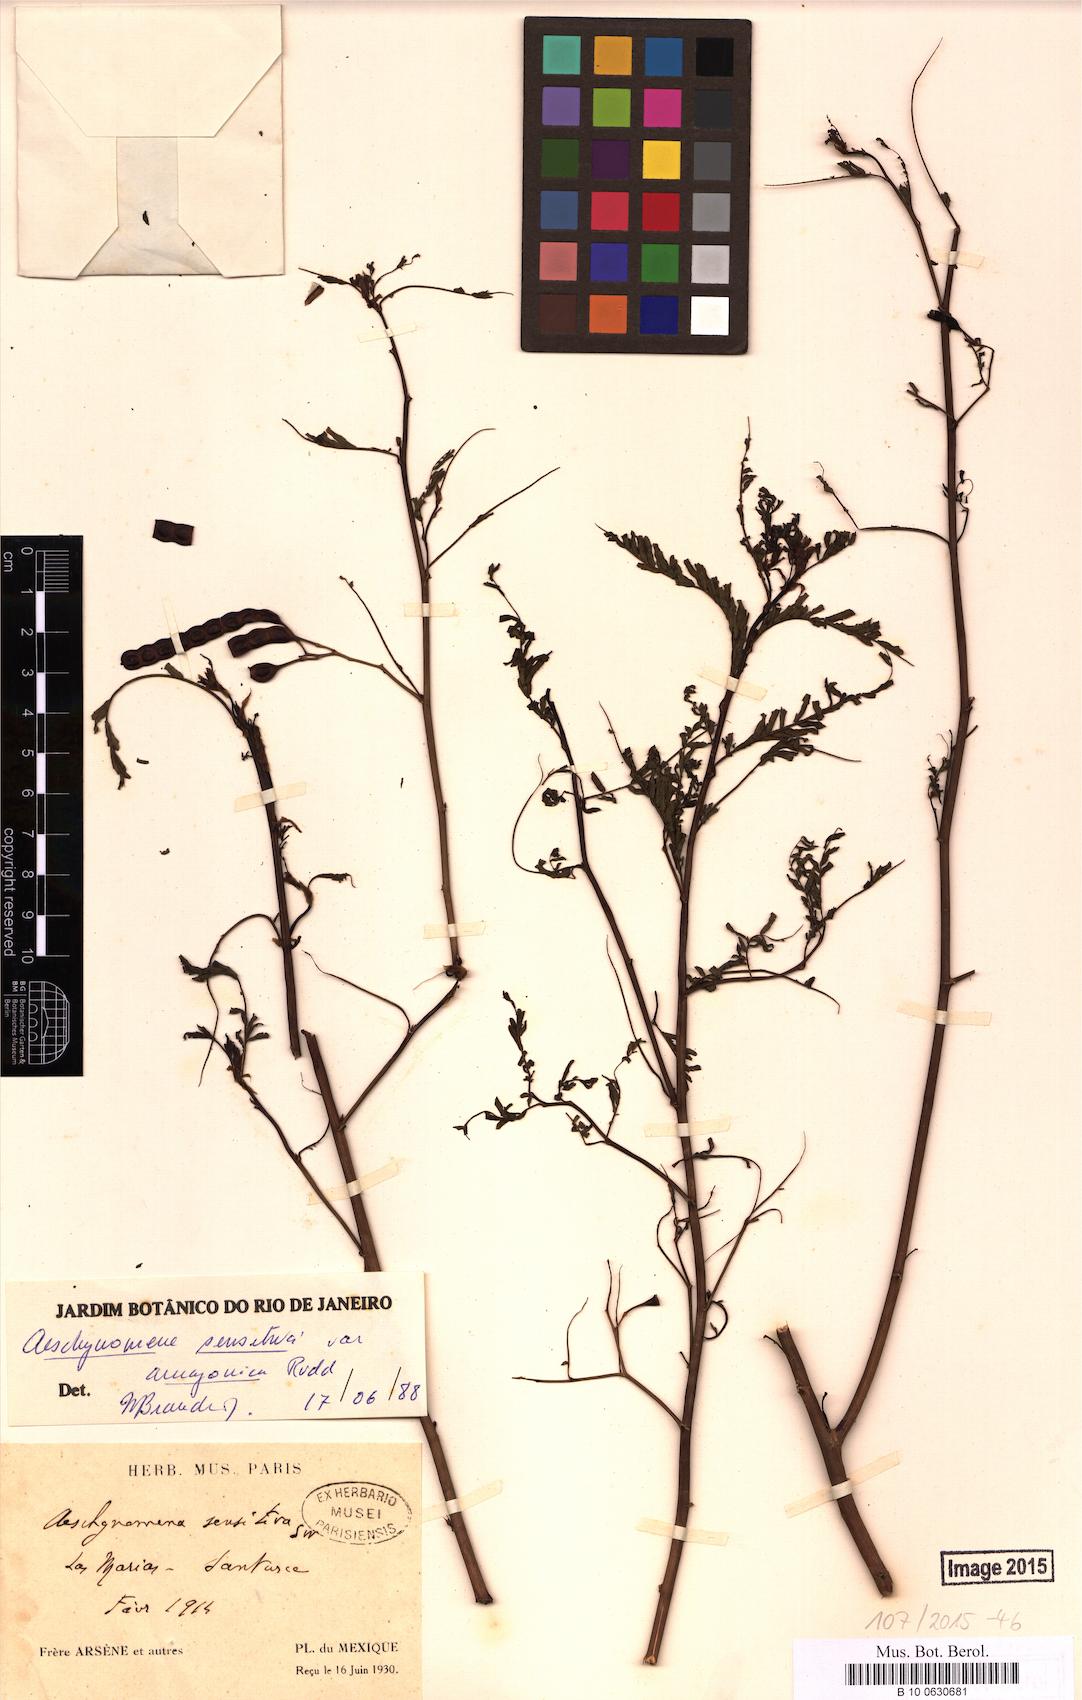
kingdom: Plantae
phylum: Tracheophyta
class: Magnoliopsida
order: Fabales
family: Fabaceae
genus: Aeschynomene
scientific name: Aeschynomene sensitiva
